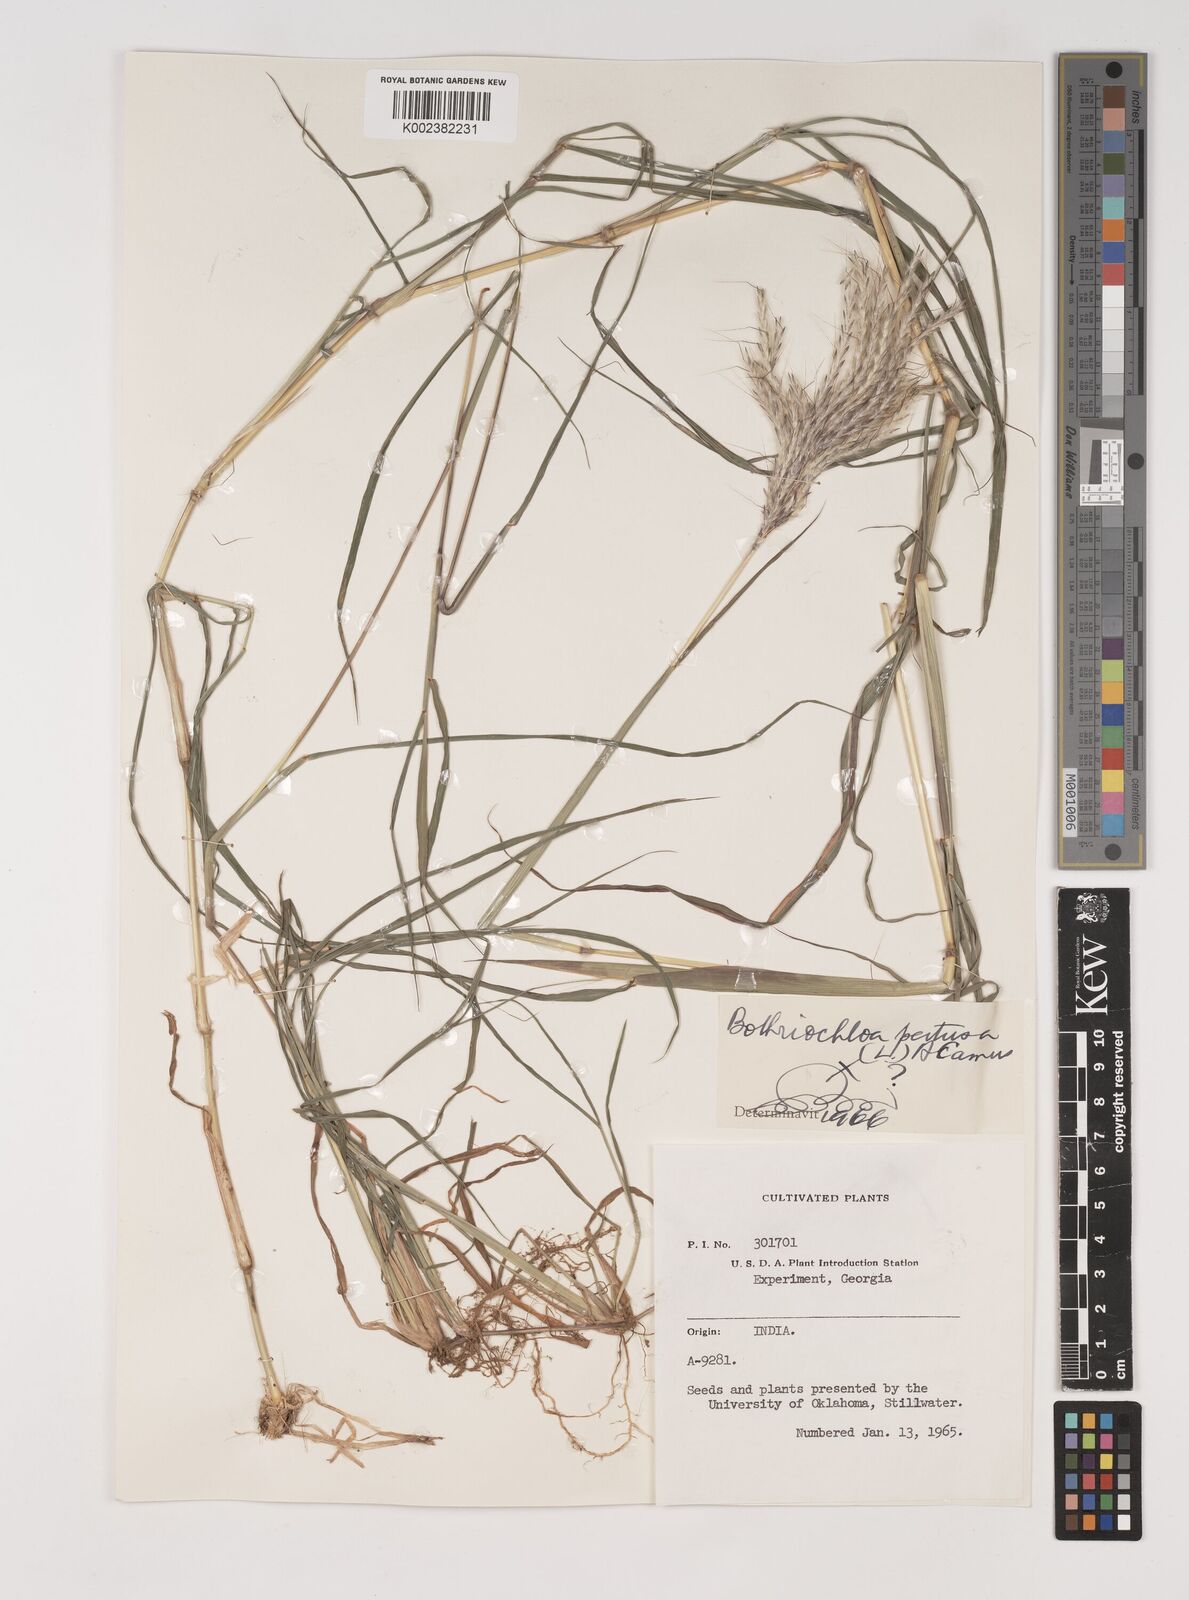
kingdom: Plantae
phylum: Tracheophyta
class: Liliopsida
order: Poales
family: Poaceae
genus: Bothriochloa
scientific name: Bothriochloa
